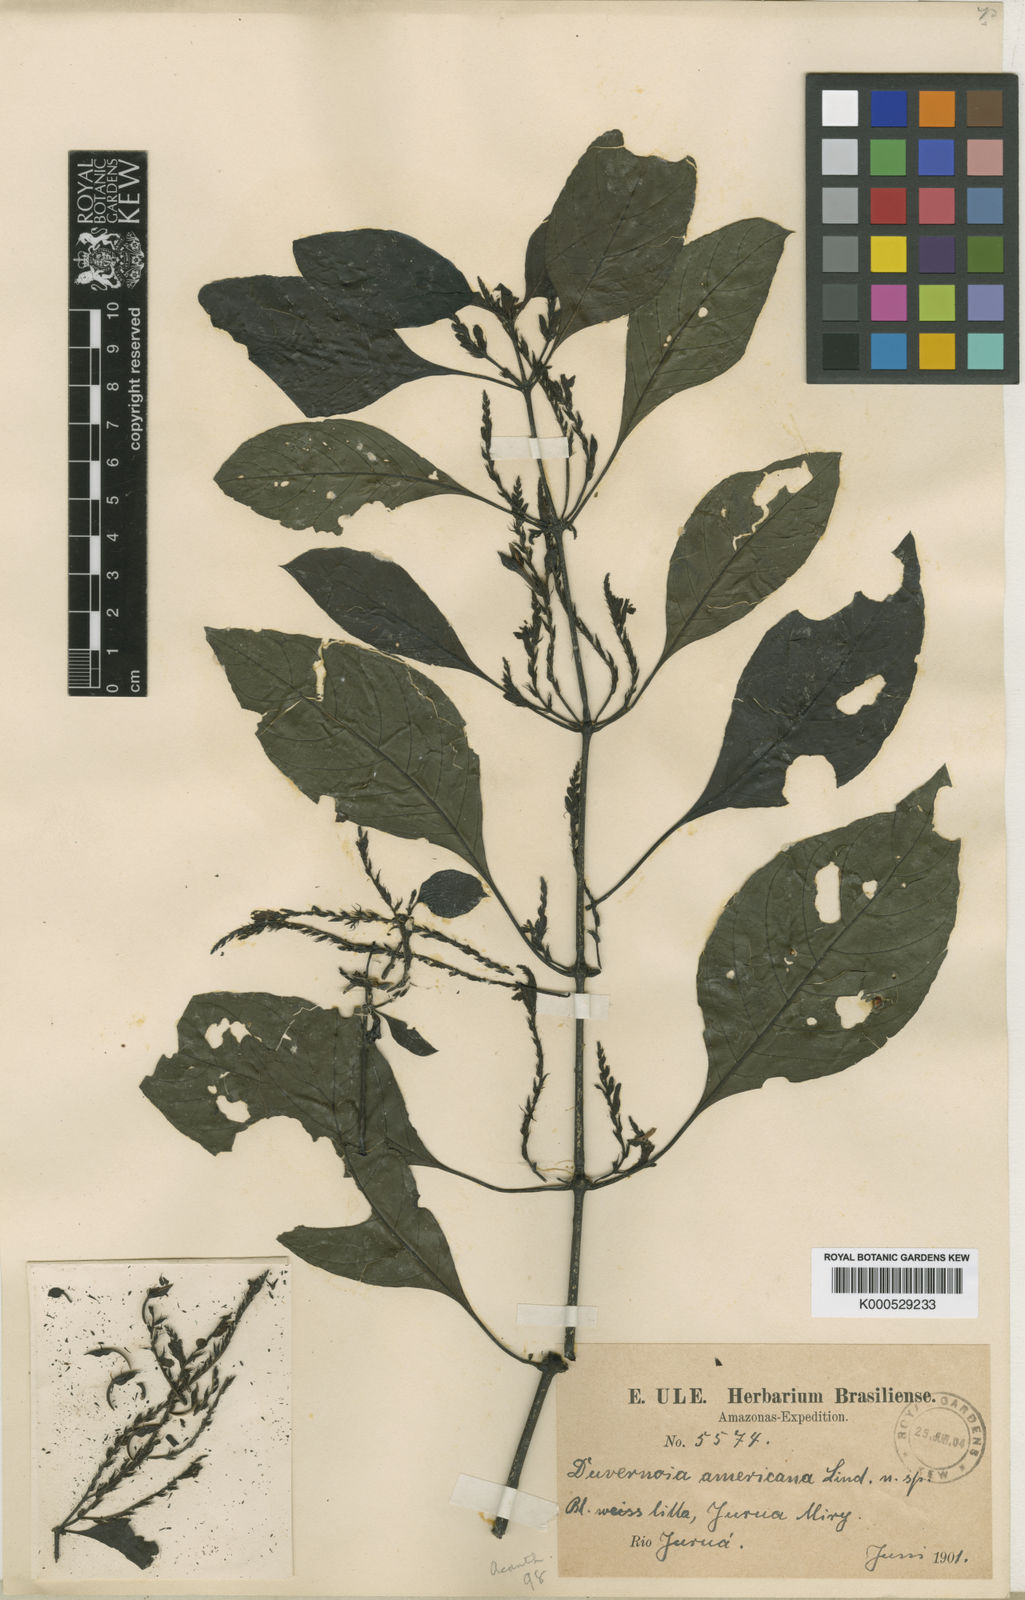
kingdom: Plantae
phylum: Tracheophyta
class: Magnoliopsida
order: Lamiales
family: Acanthaceae
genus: Dianthera
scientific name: Dianthera americana
